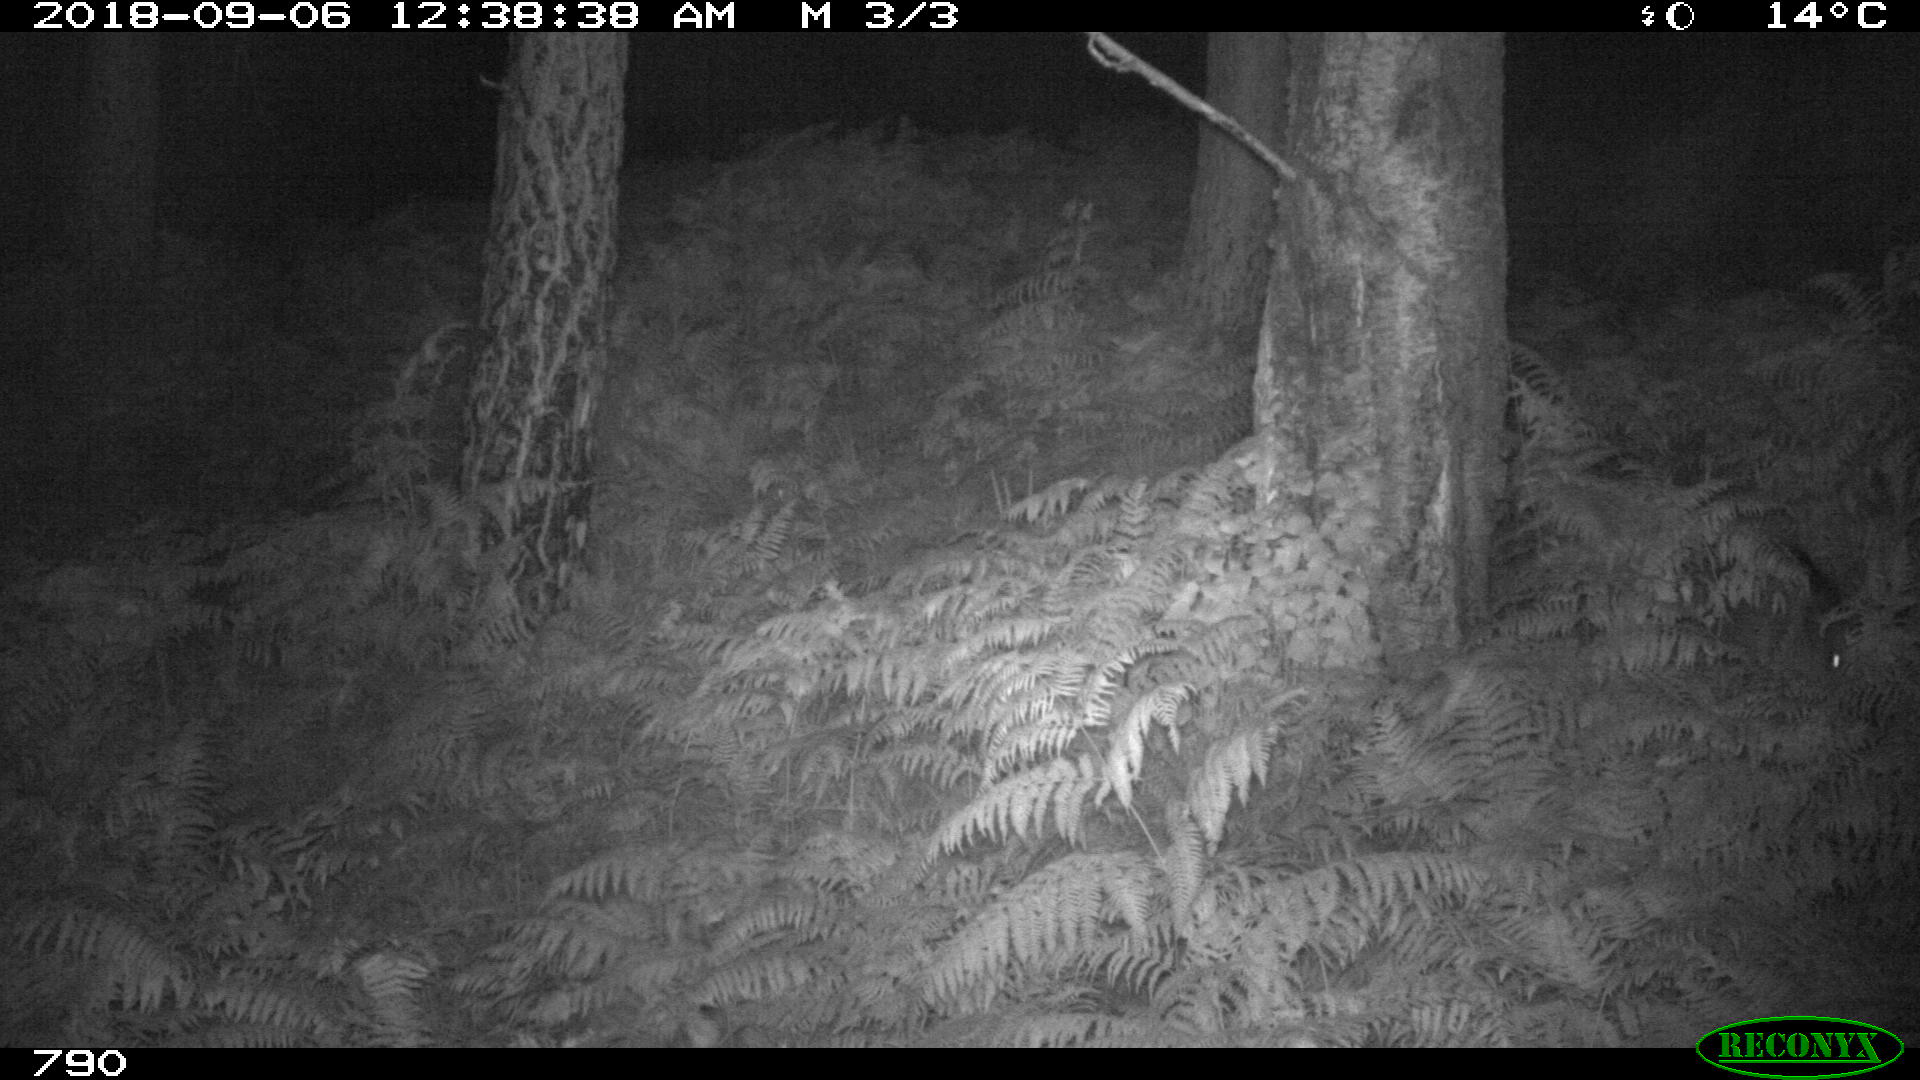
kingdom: Animalia
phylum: Chordata
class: Mammalia
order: Artiodactyla
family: Suidae
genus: Sus
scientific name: Sus scrofa
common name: Wild boar
